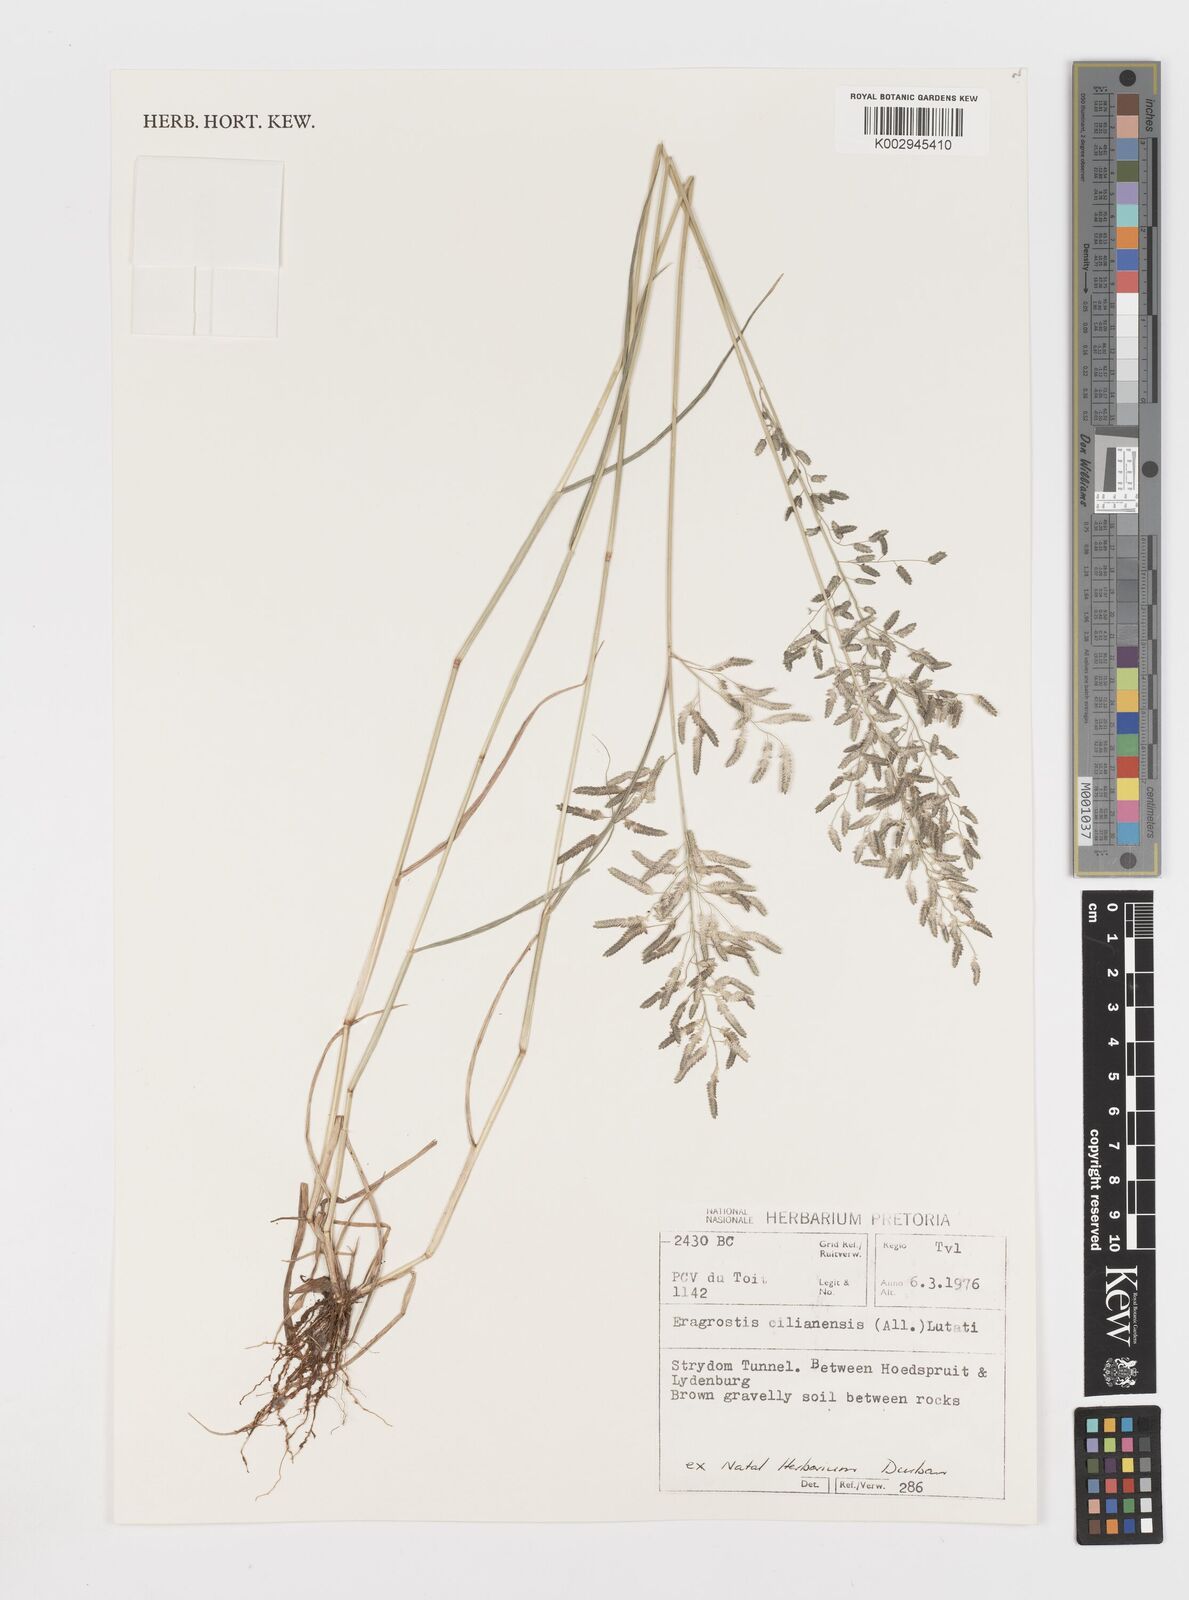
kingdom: Plantae
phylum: Tracheophyta
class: Liliopsida
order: Poales
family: Poaceae
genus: Eragrostis
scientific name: Eragrostis cilianensis
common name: Stinkgrass
